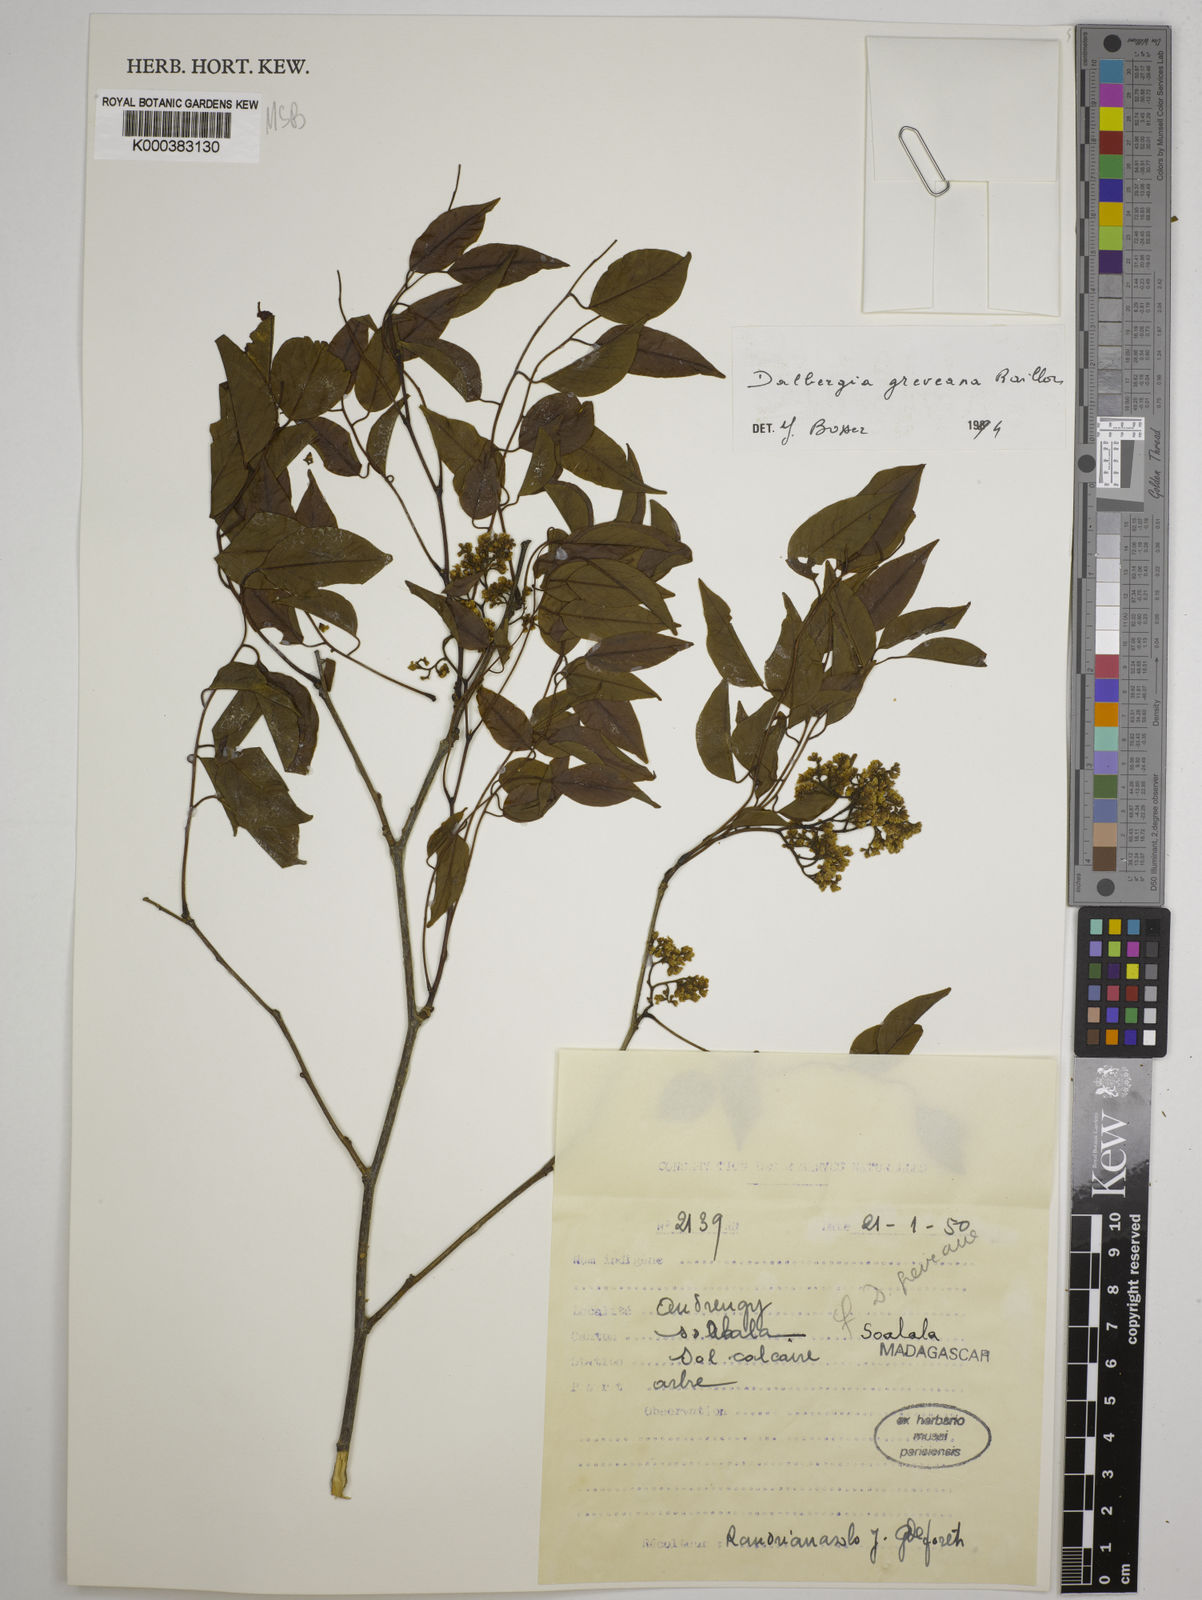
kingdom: Plantae
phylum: Tracheophyta
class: Magnoliopsida
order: Fabales
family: Fabaceae
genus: Dalbergia
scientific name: Dalbergia greveana
